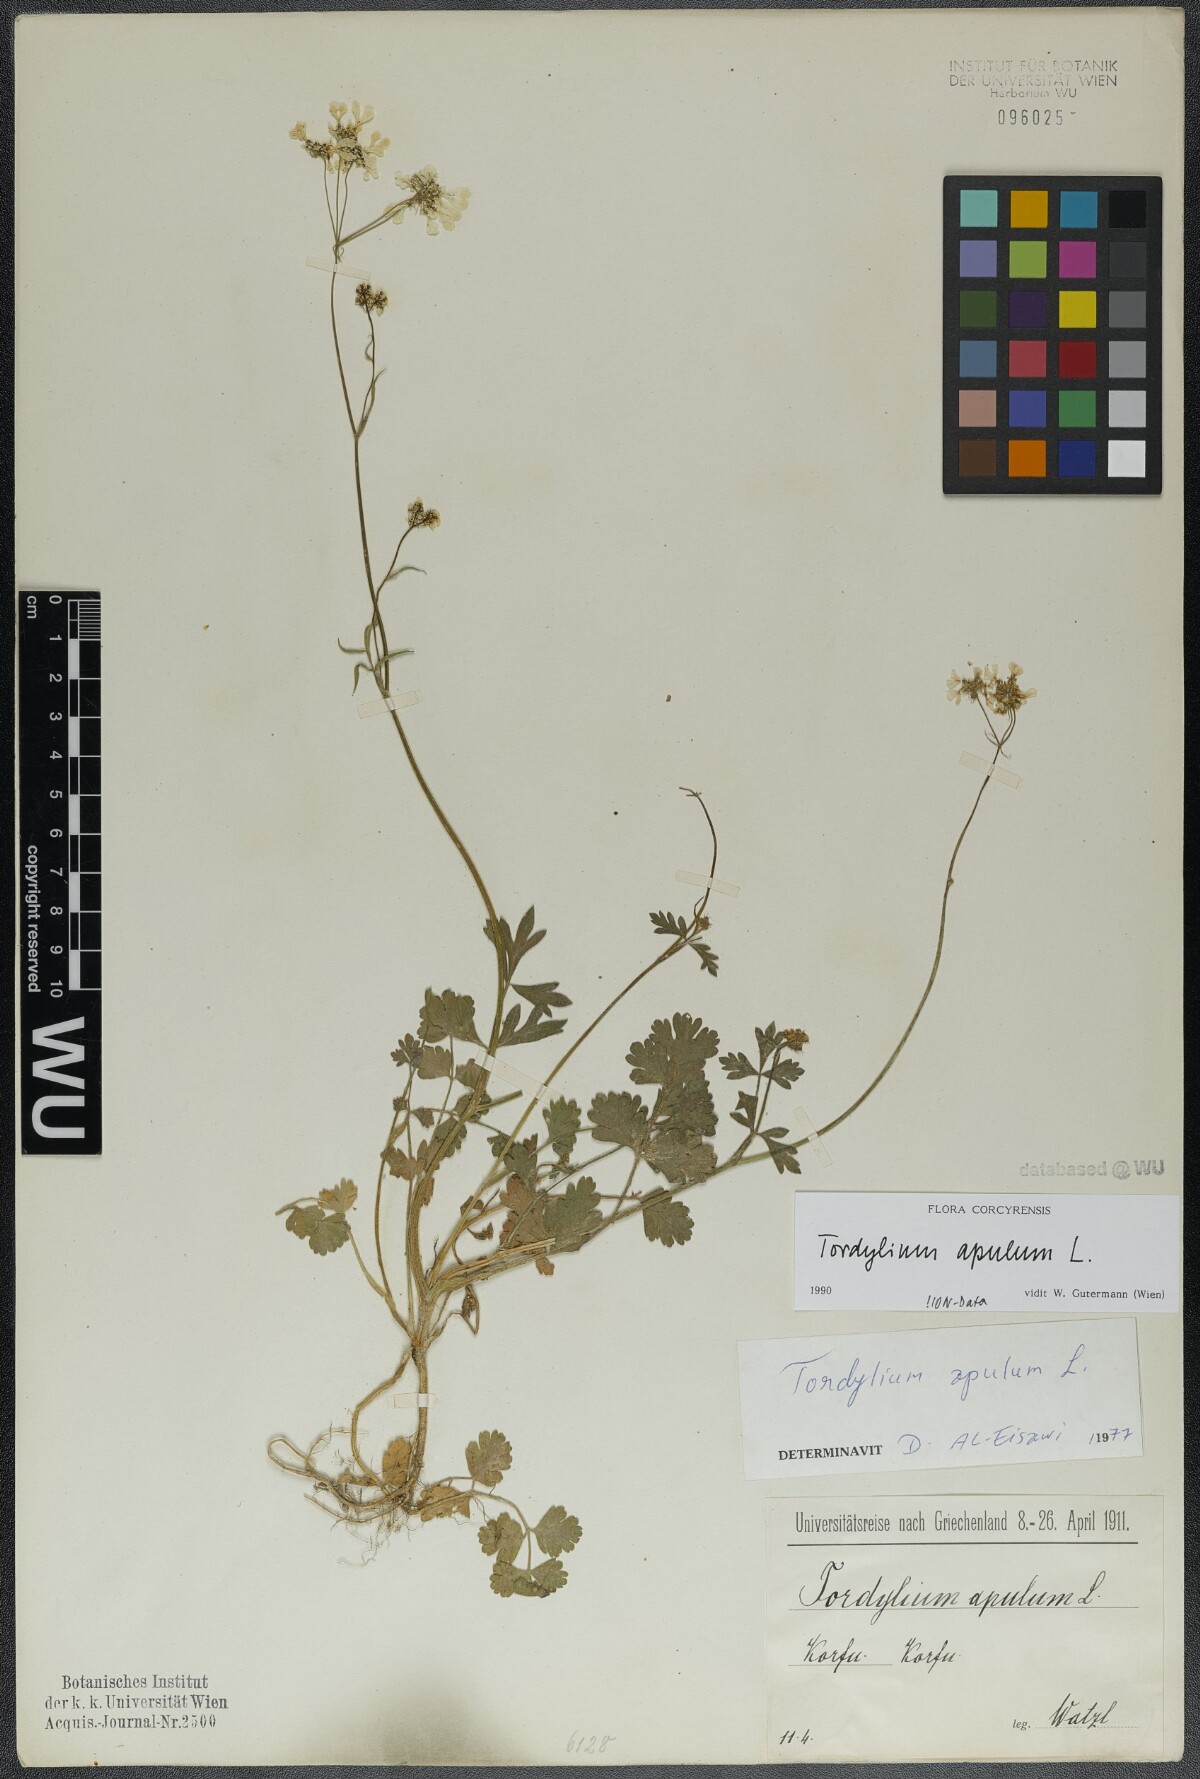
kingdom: Plantae
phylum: Tracheophyta
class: Magnoliopsida
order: Apiales
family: Apiaceae
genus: Tordylium
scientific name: Tordylium apulum
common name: Mediterranean hartwort
